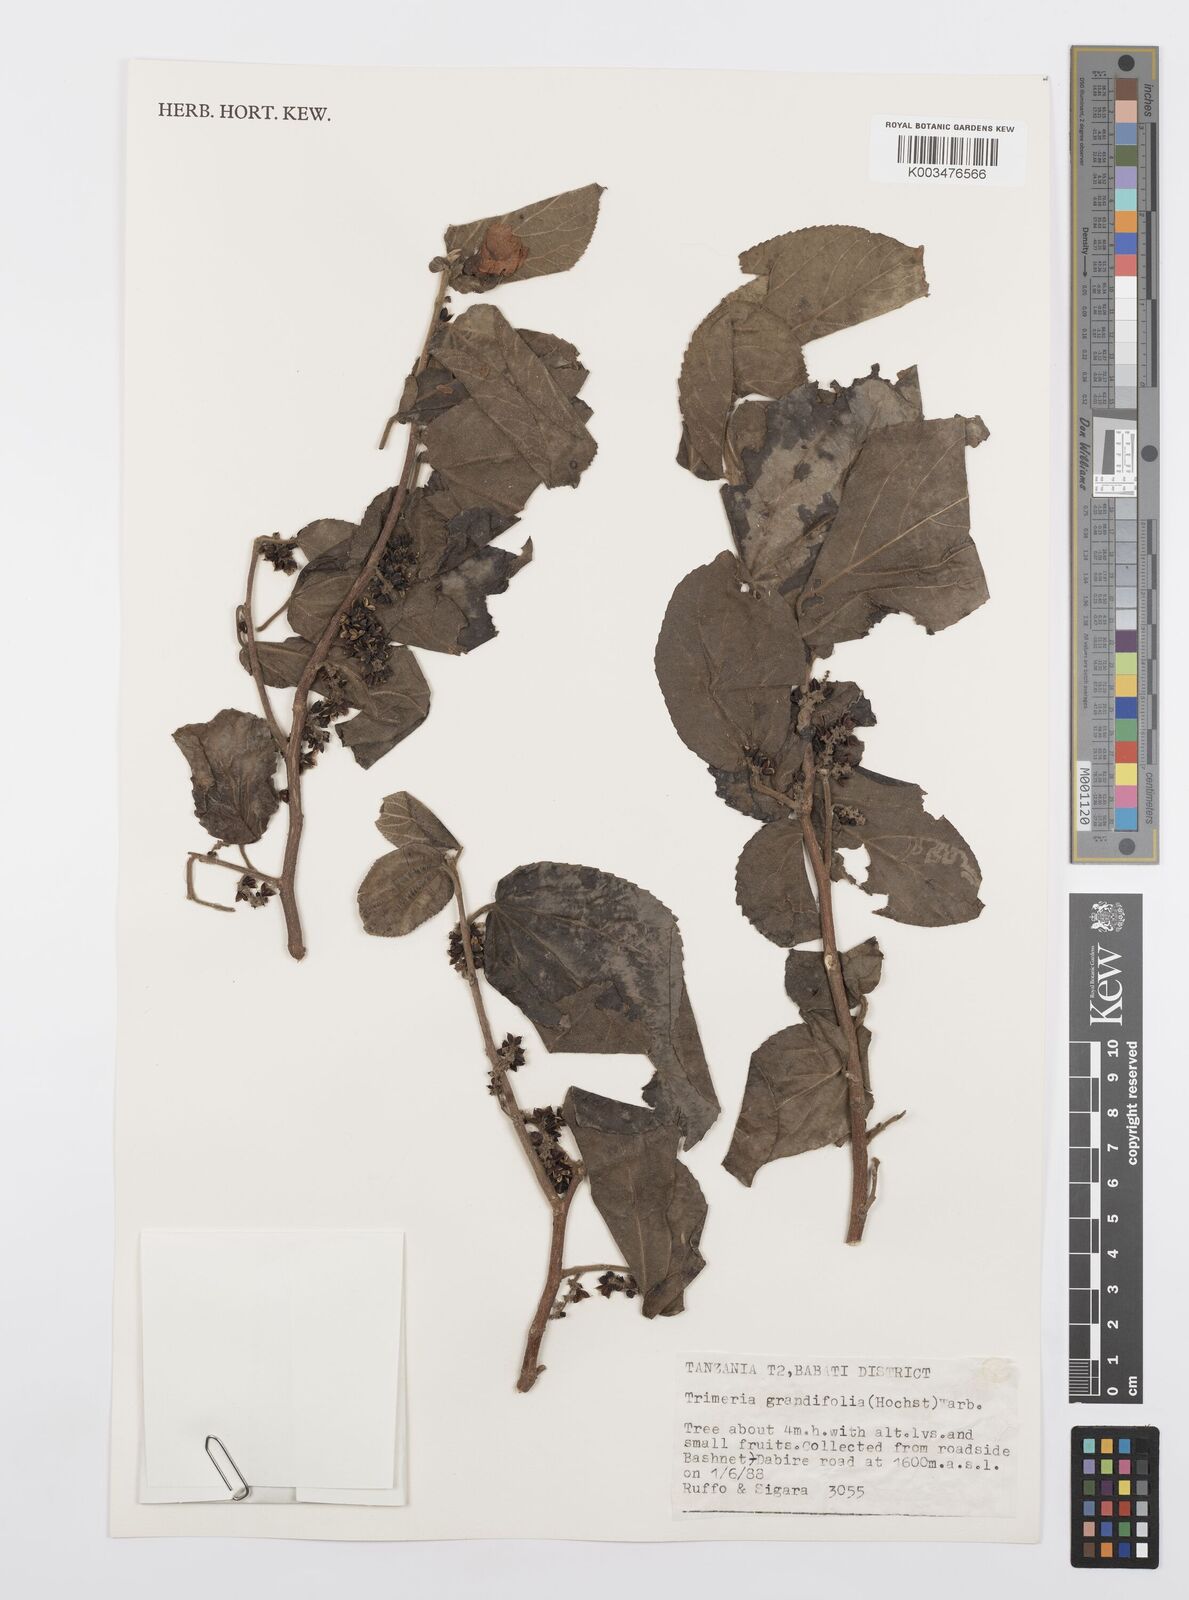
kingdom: Plantae
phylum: Tracheophyta
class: Magnoliopsida
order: Malpighiales
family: Salicaceae
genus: Trimeria
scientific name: Trimeria grandifolia
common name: Wild mulberry
